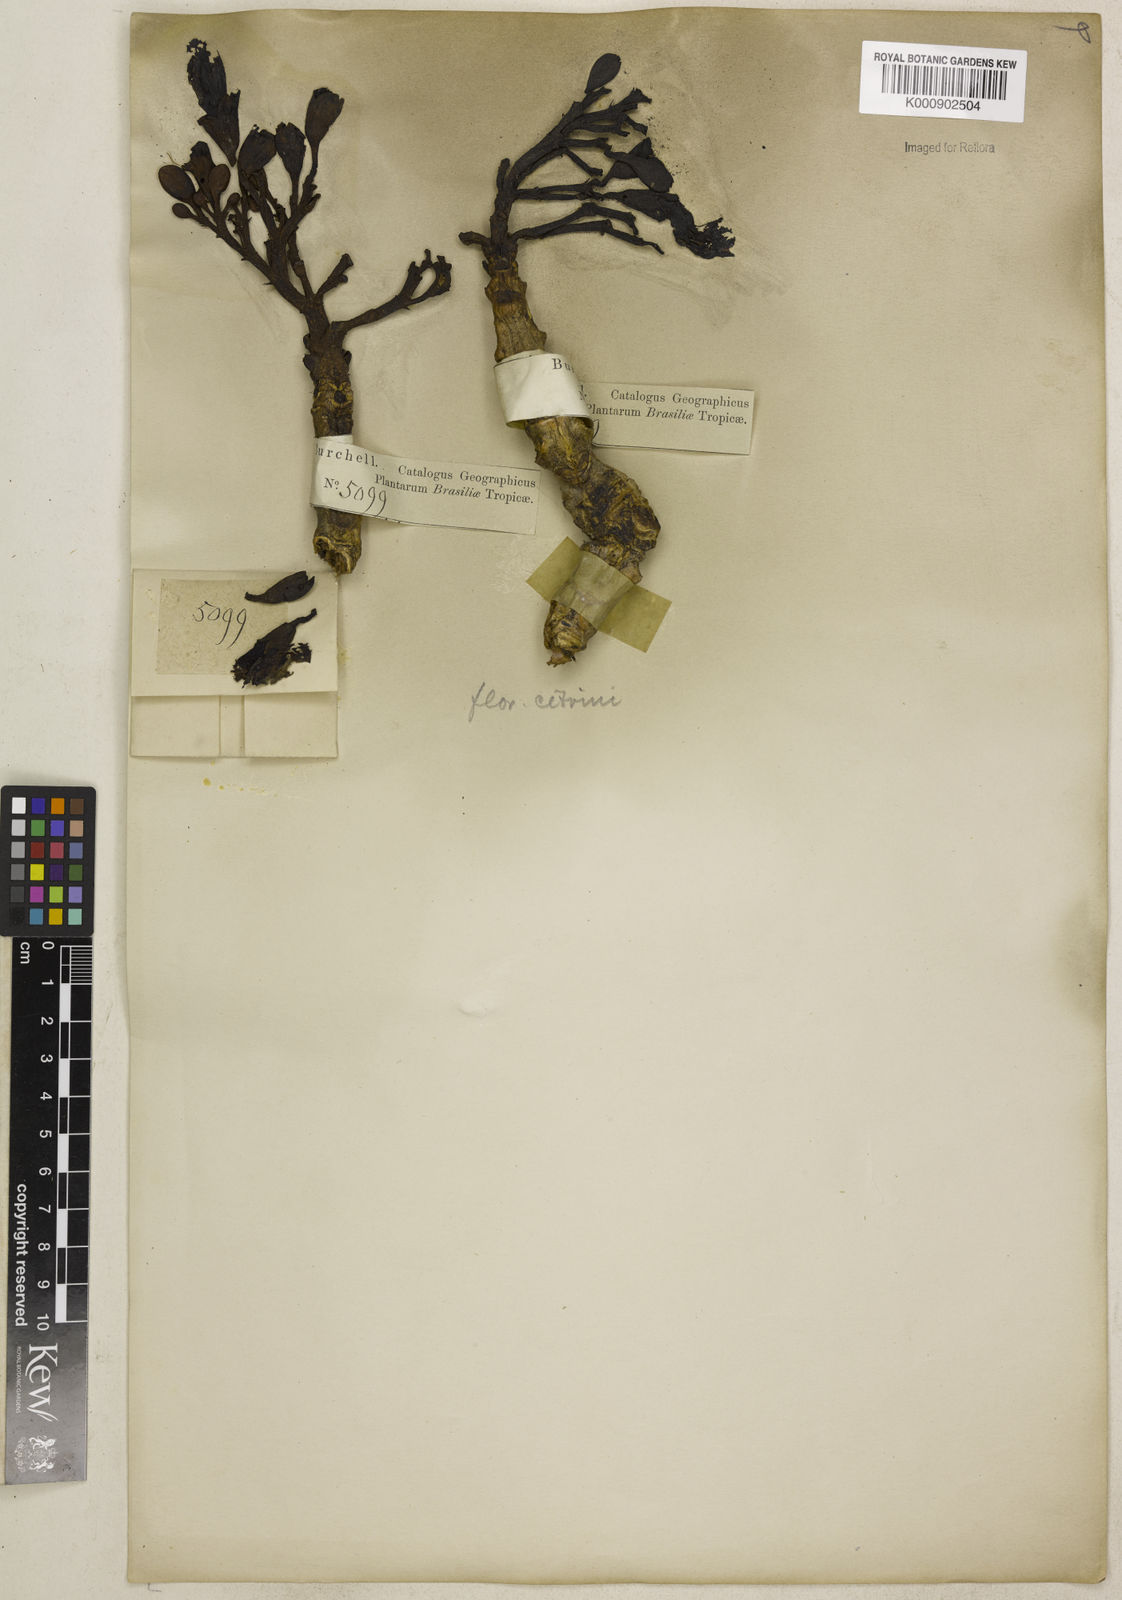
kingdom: Plantae
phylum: Tracheophyta
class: Magnoliopsida
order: Lamiales
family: Bignoniaceae
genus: Tabebuia
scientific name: Tabebuia aurea
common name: Caribbean trumpet-tree
